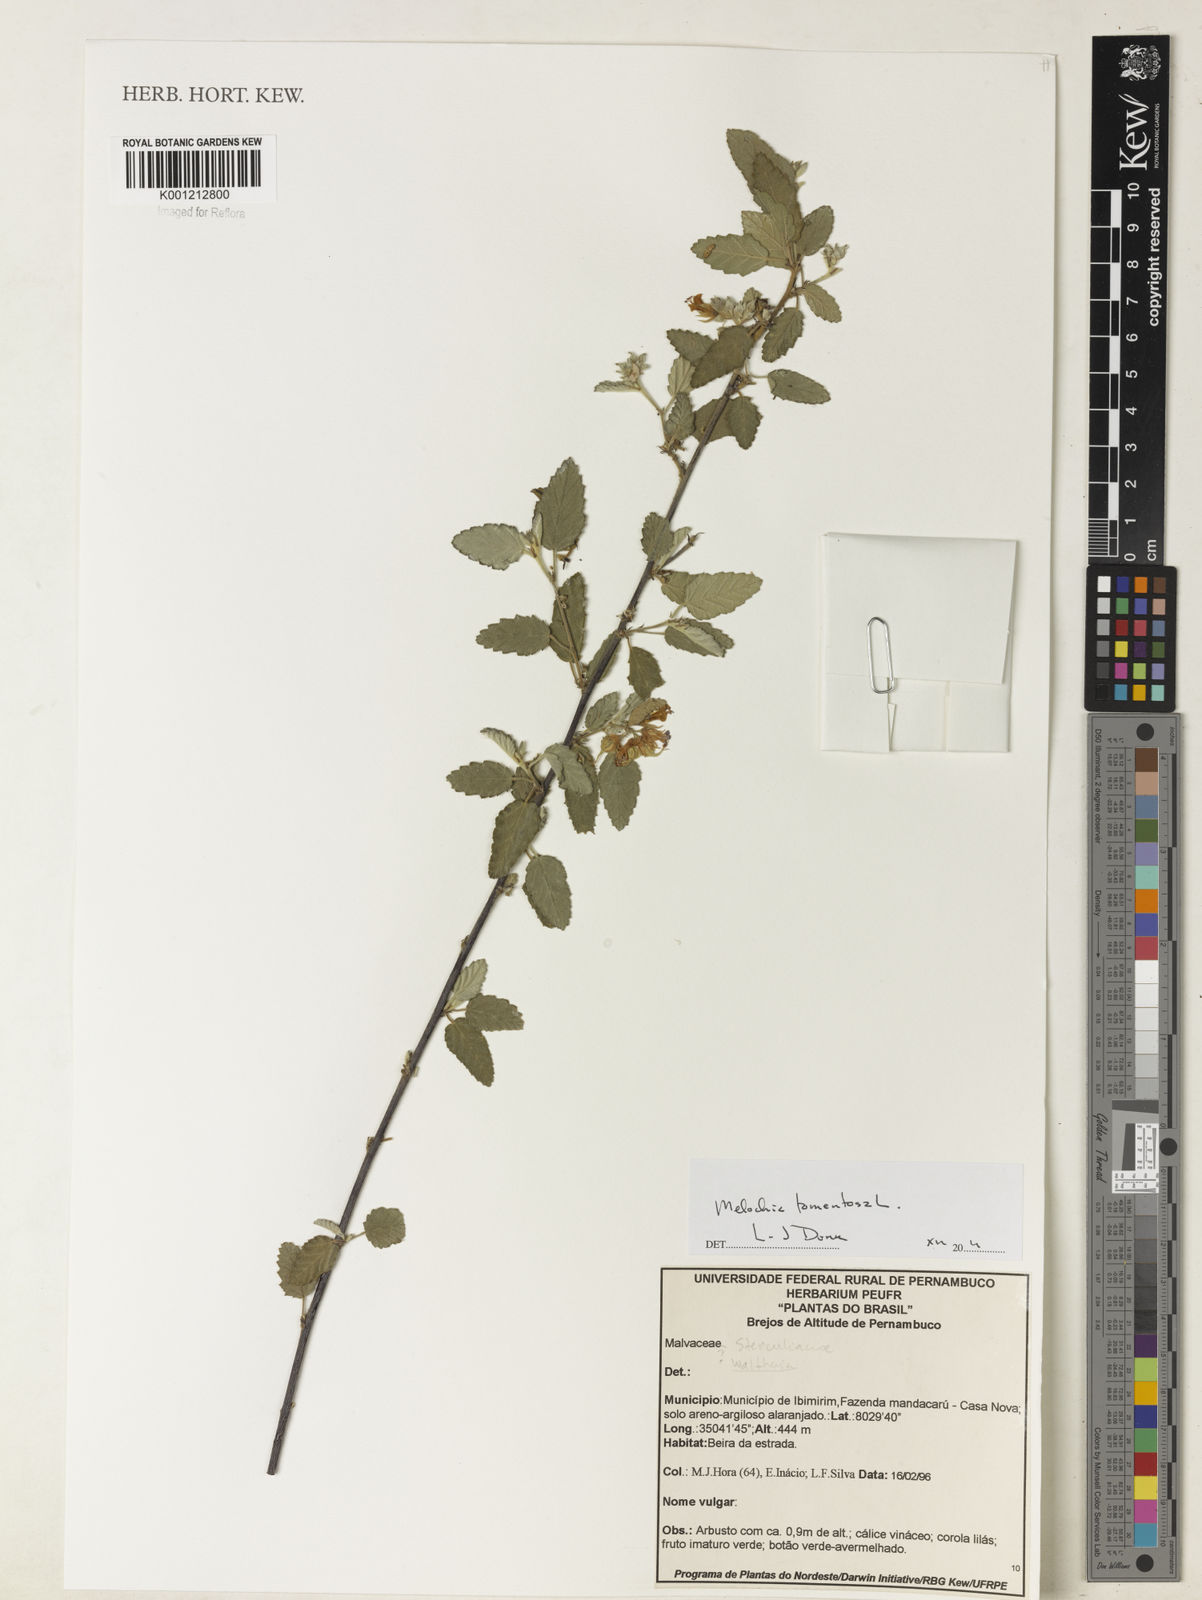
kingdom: Plantae
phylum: Tracheophyta
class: Magnoliopsida
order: Malvales
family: Malvaceae
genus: Melochia
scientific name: Melochia tomentosa
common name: Black torch
